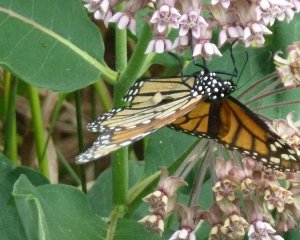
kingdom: Animalia
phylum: Arthropoda
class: Insecta
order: Lepidoptera
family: Nymphalidae
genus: Danaus
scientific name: Danaus plexippus
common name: Monarch
